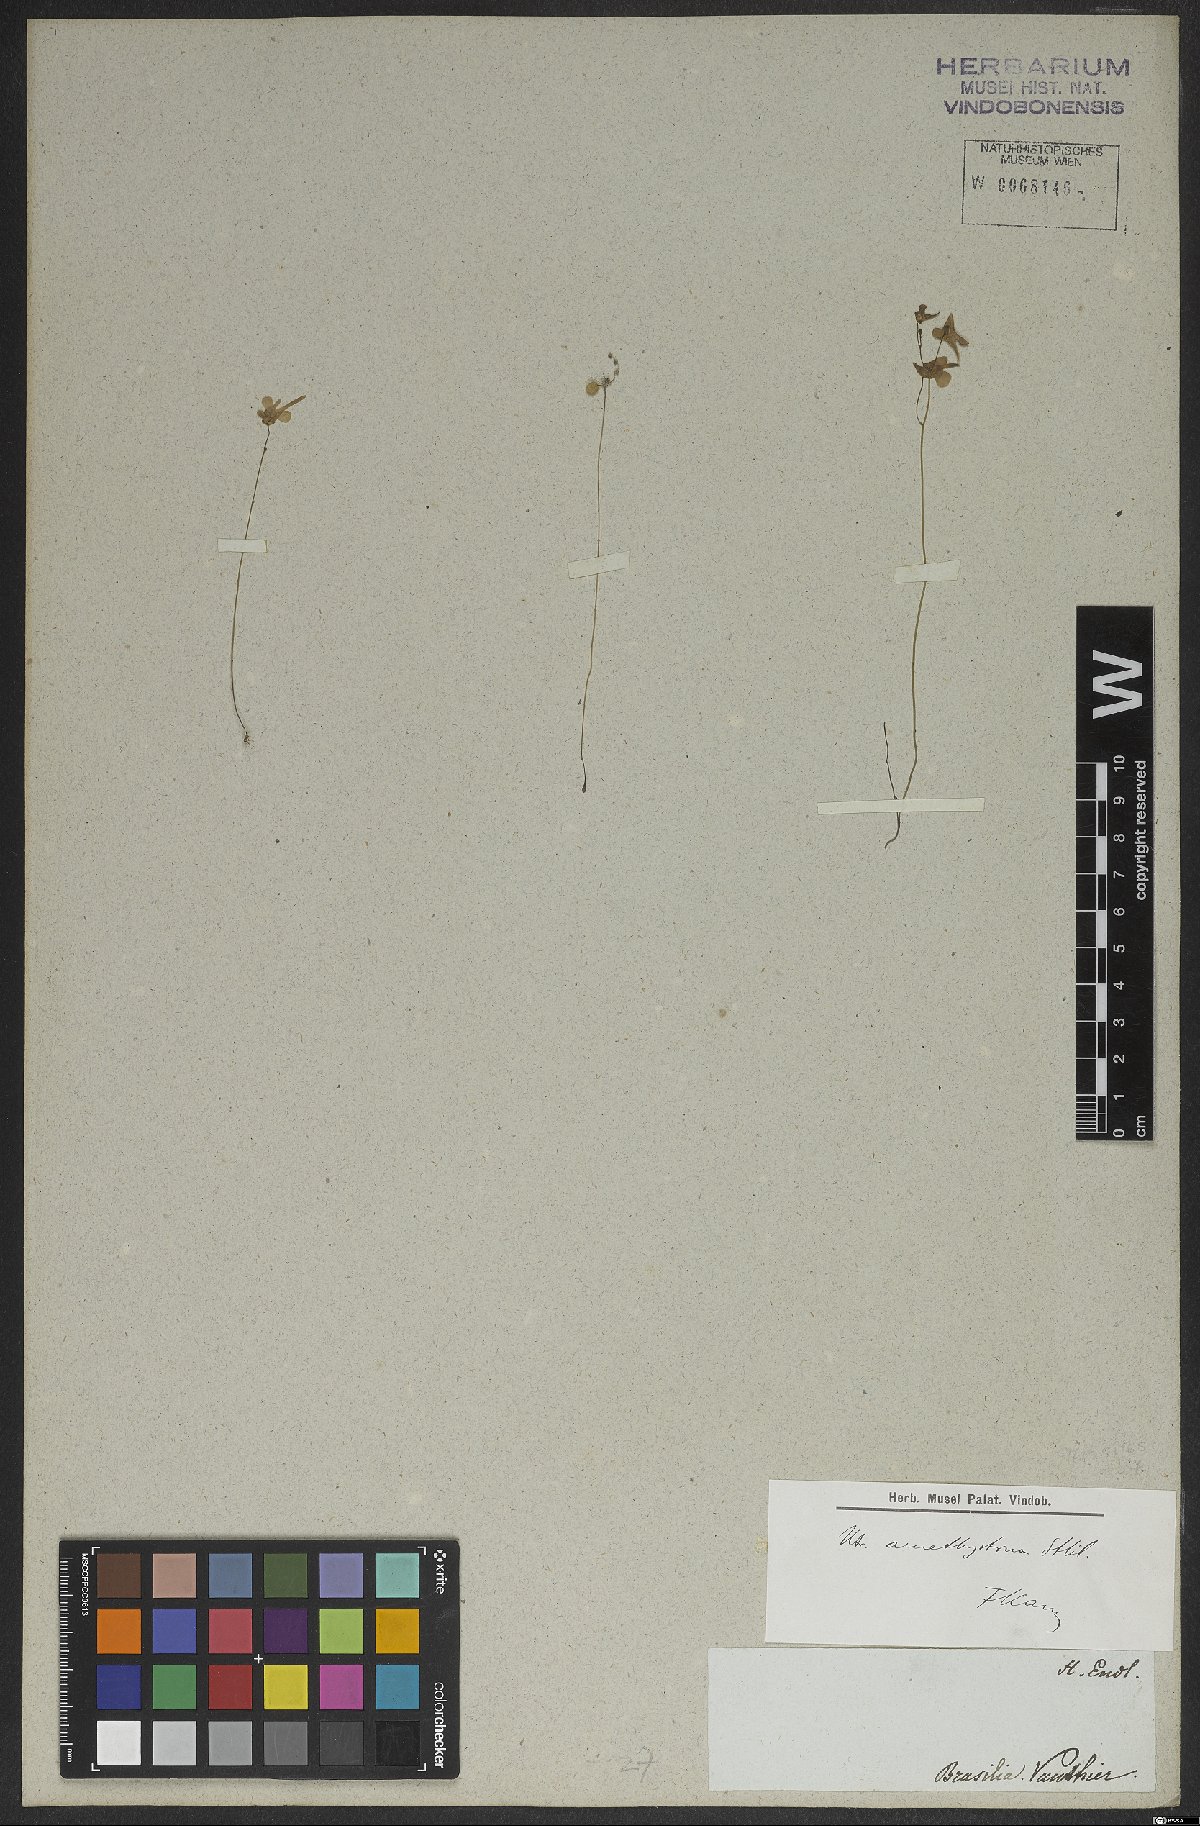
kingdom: Plantae
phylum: Tracheophyta
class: Magnoliopsida
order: Lamiales
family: Lentibulariaceae
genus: Utricularia
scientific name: Utricularia amethystina
